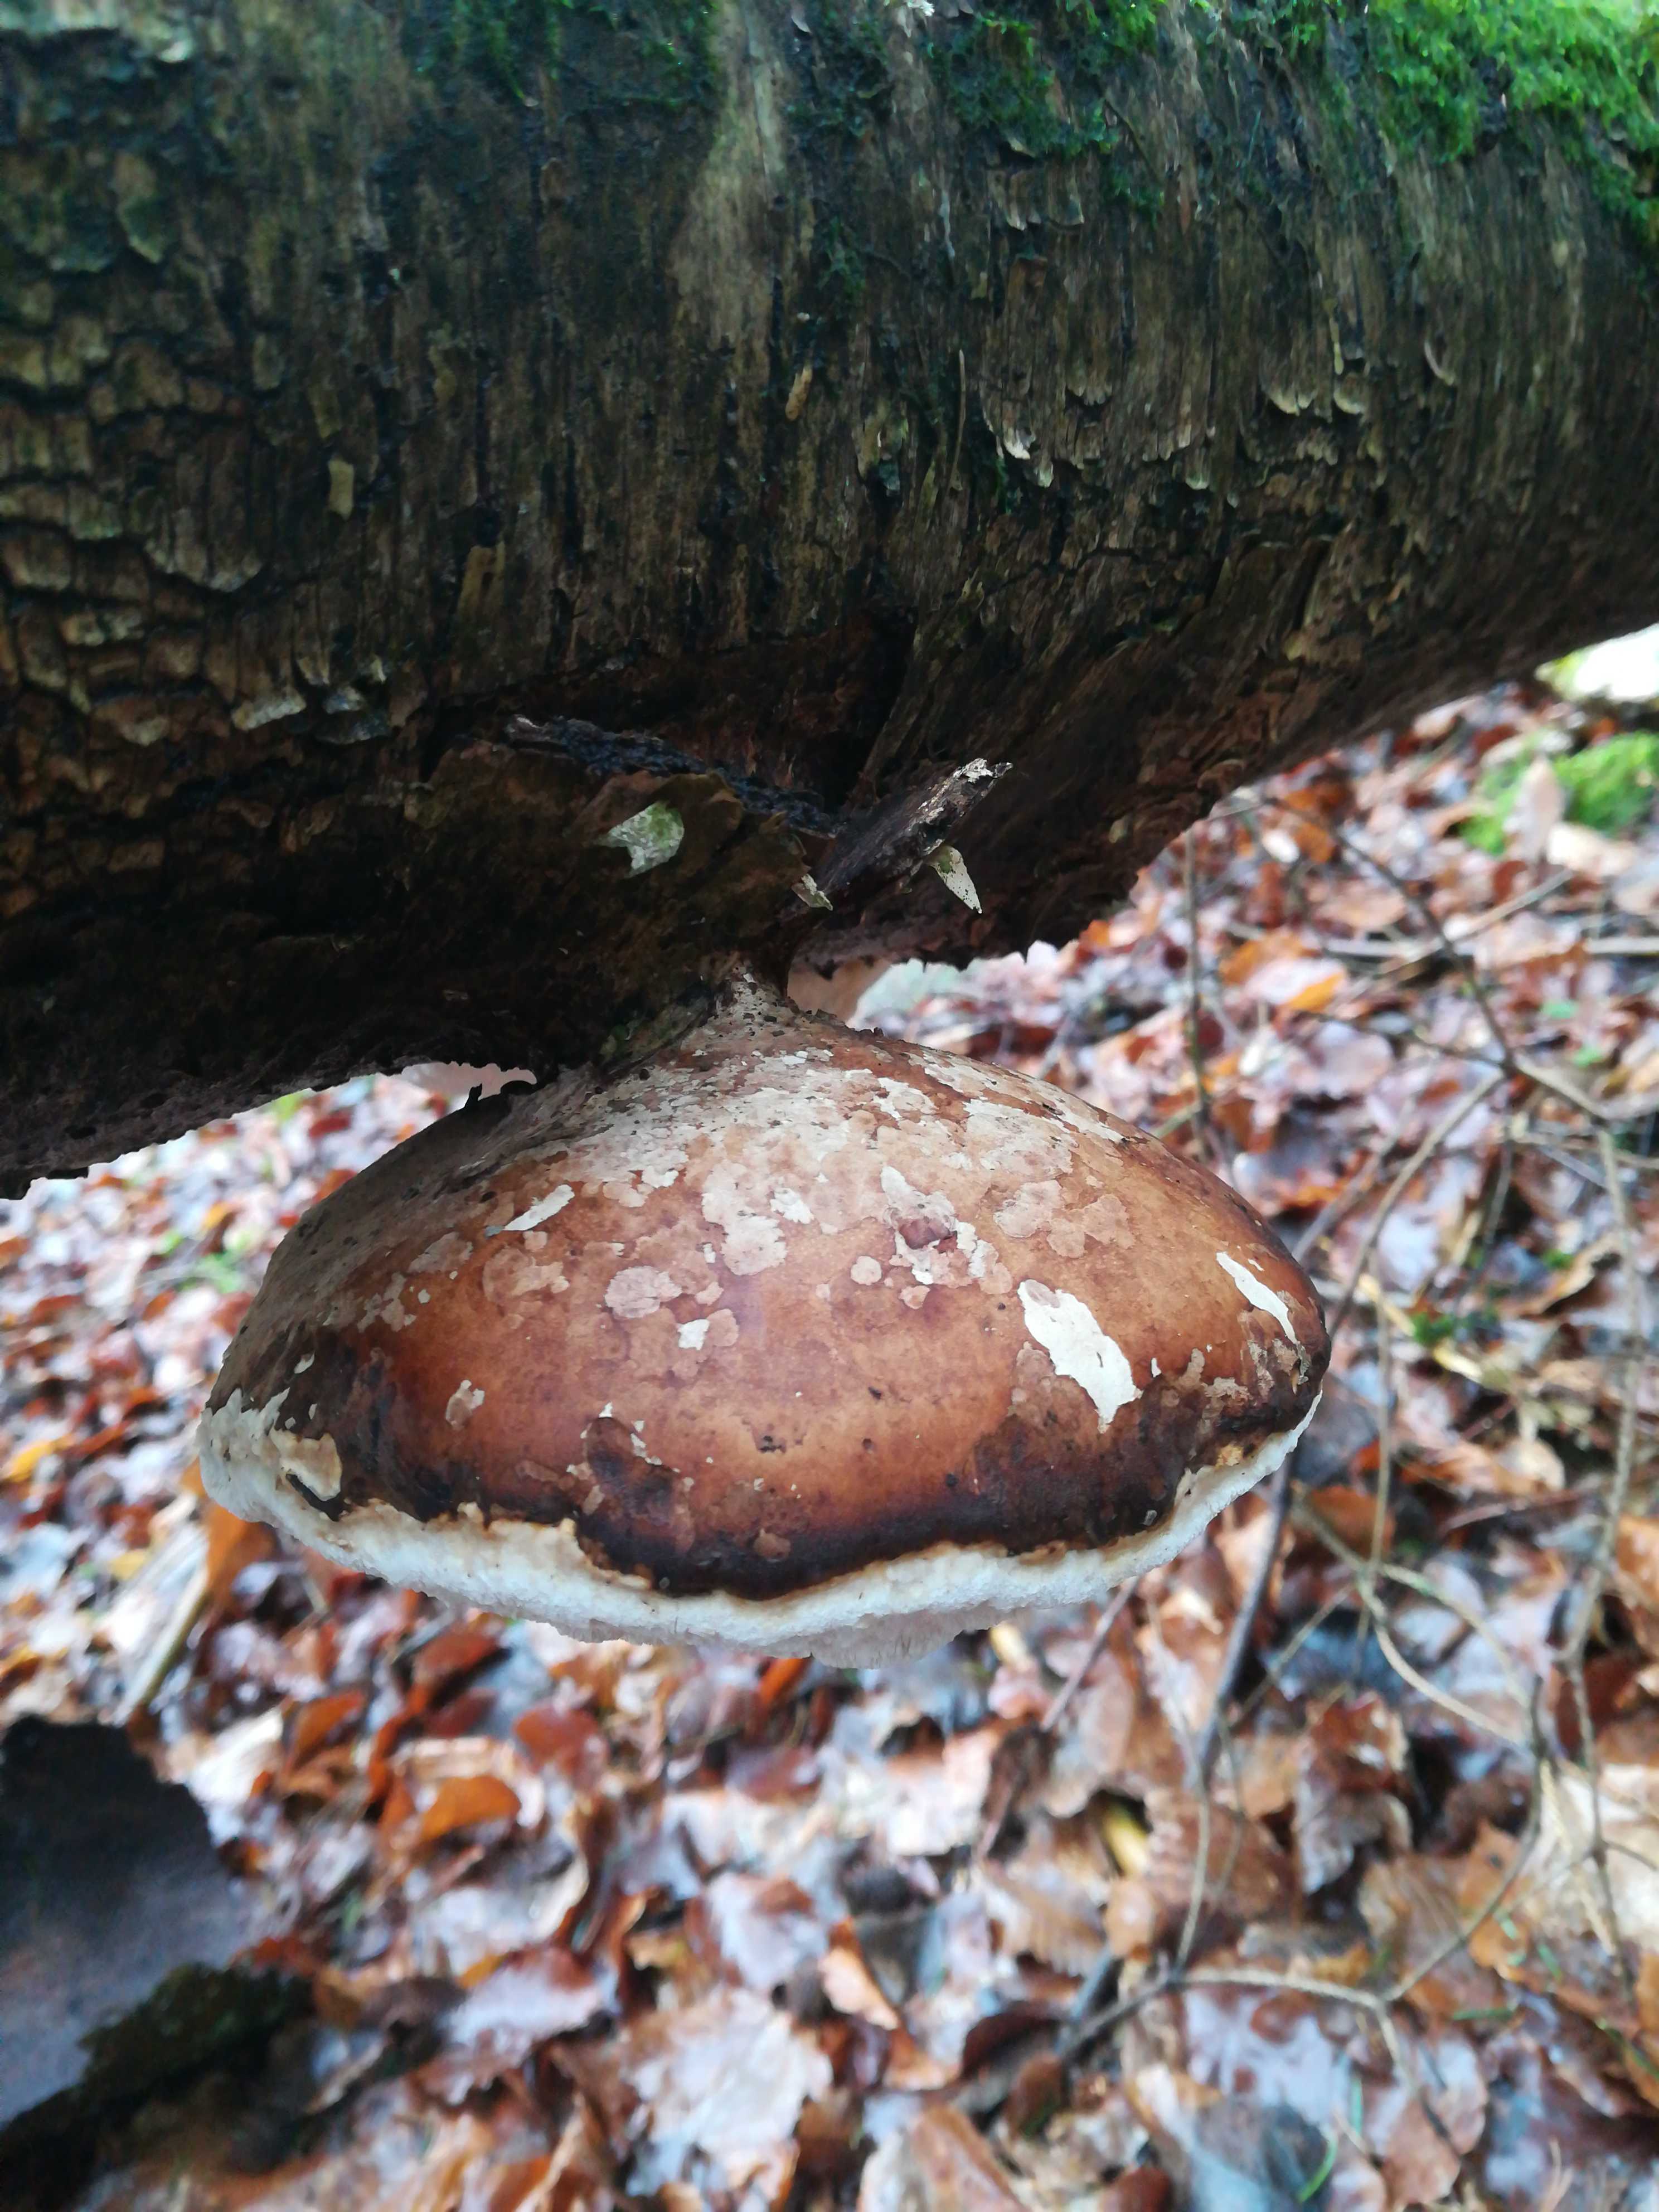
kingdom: Fungi
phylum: Basidiomycota
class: Agaricomycetes
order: Polyporales
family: Fomitopsidaceae
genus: Fomitopsis
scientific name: Fomitopsis betulina
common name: birkeporesvamp
